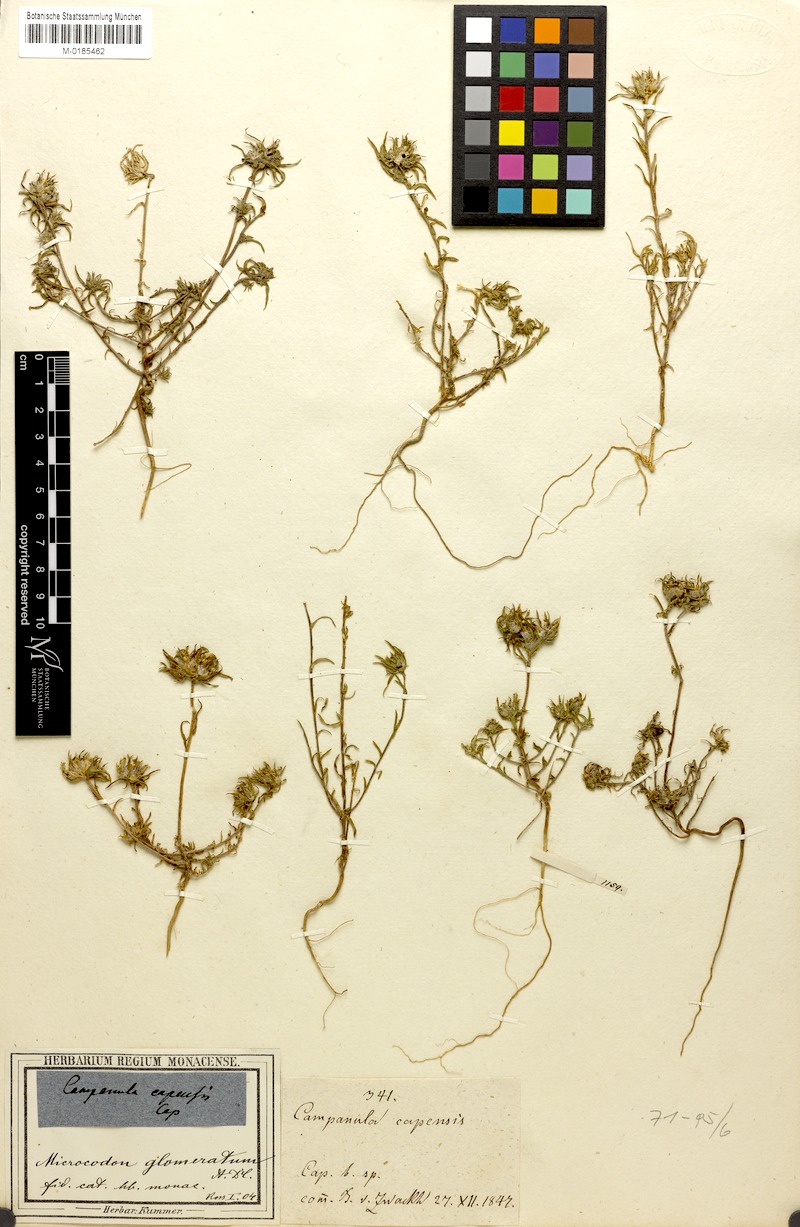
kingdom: Plantae
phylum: Tracheophyta
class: Magnoliopsida
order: Asterales
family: Campanulaceae
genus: Microcodon
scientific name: Microcodon glomeratus
